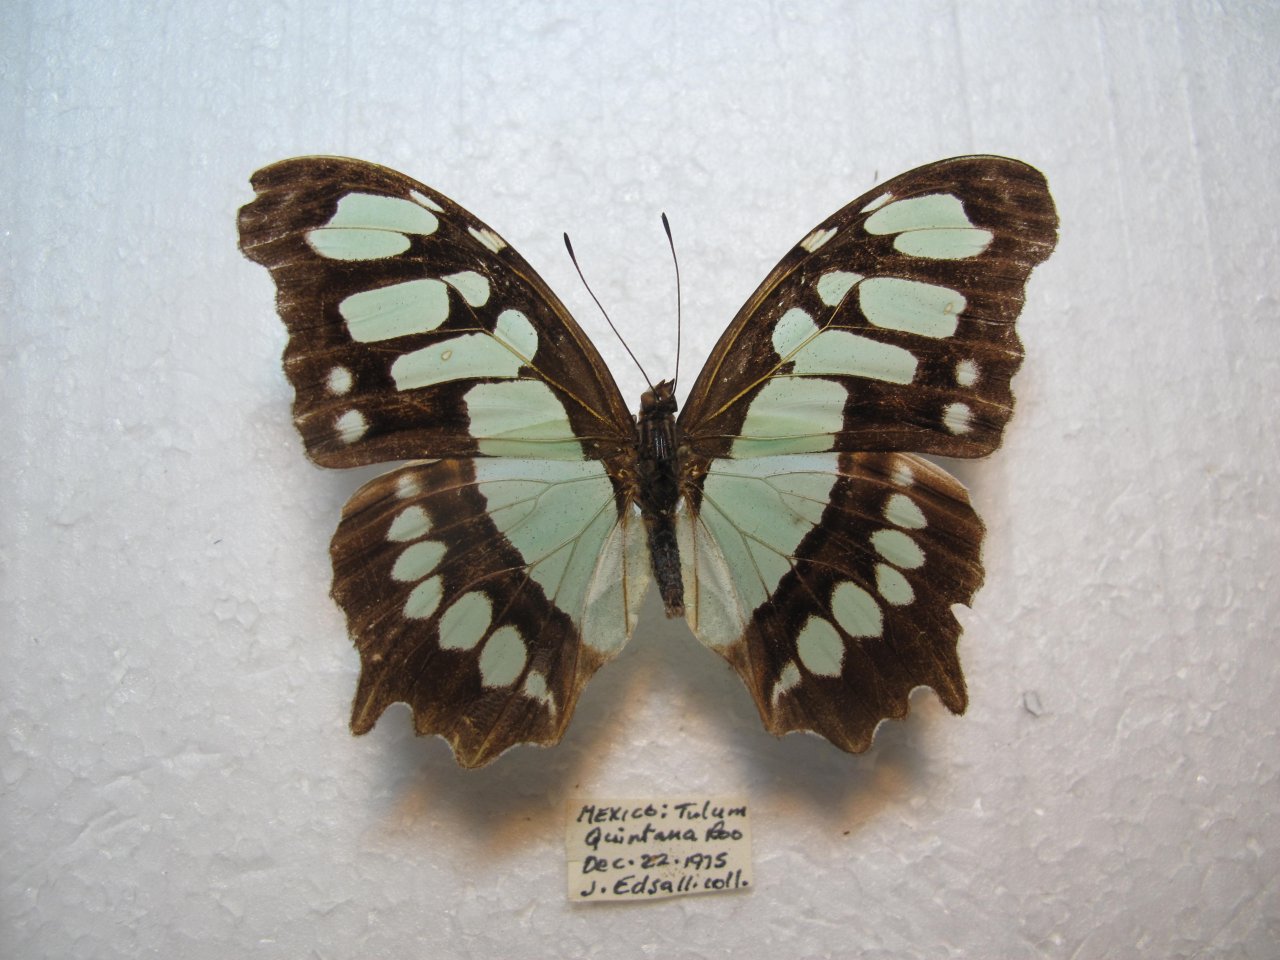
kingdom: Animalia
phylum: Arthropoda
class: Insecta
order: Lepidoptera
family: Nymphalidae
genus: Siproeta
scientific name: Siproeta stelenes
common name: Malachite
